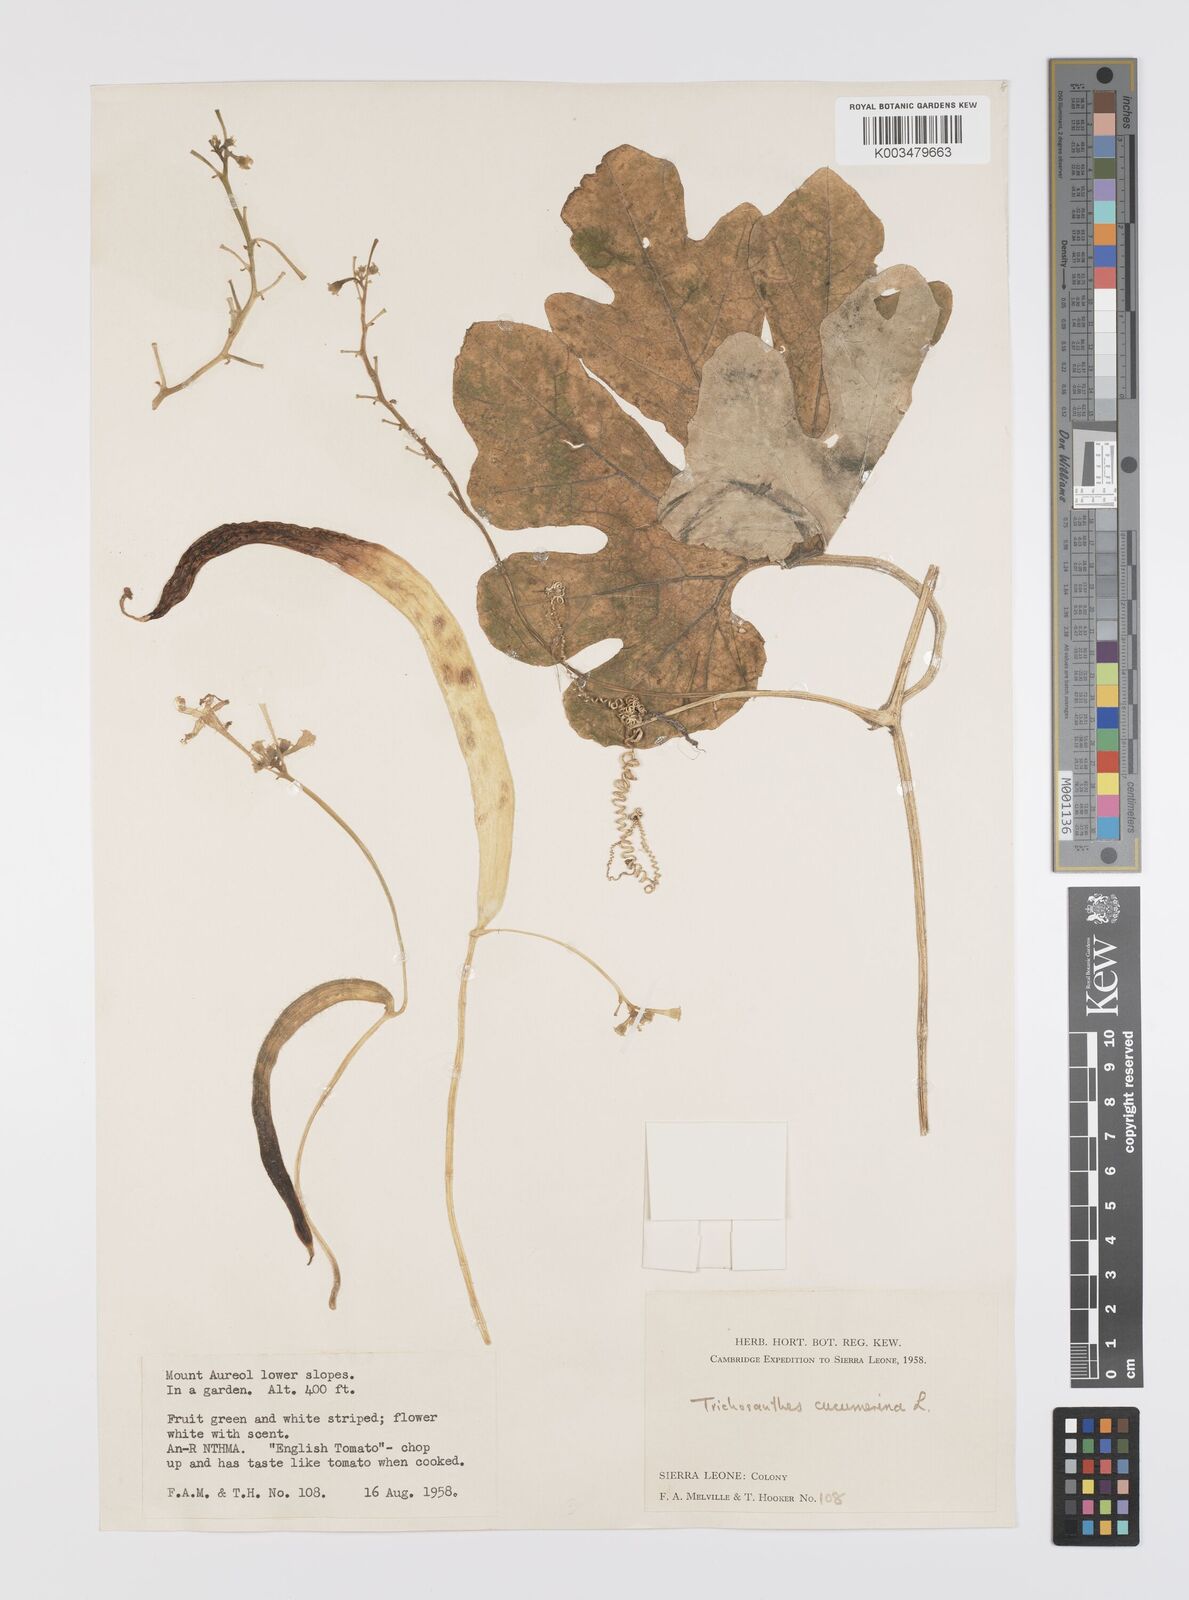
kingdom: Plantae
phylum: Tracheophyta
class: Magnoliopsida
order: Cucurbitales
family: Cucurbitaceae
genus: Trichosanthes
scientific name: Trichosanthes cucumerina
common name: Snakegourd
